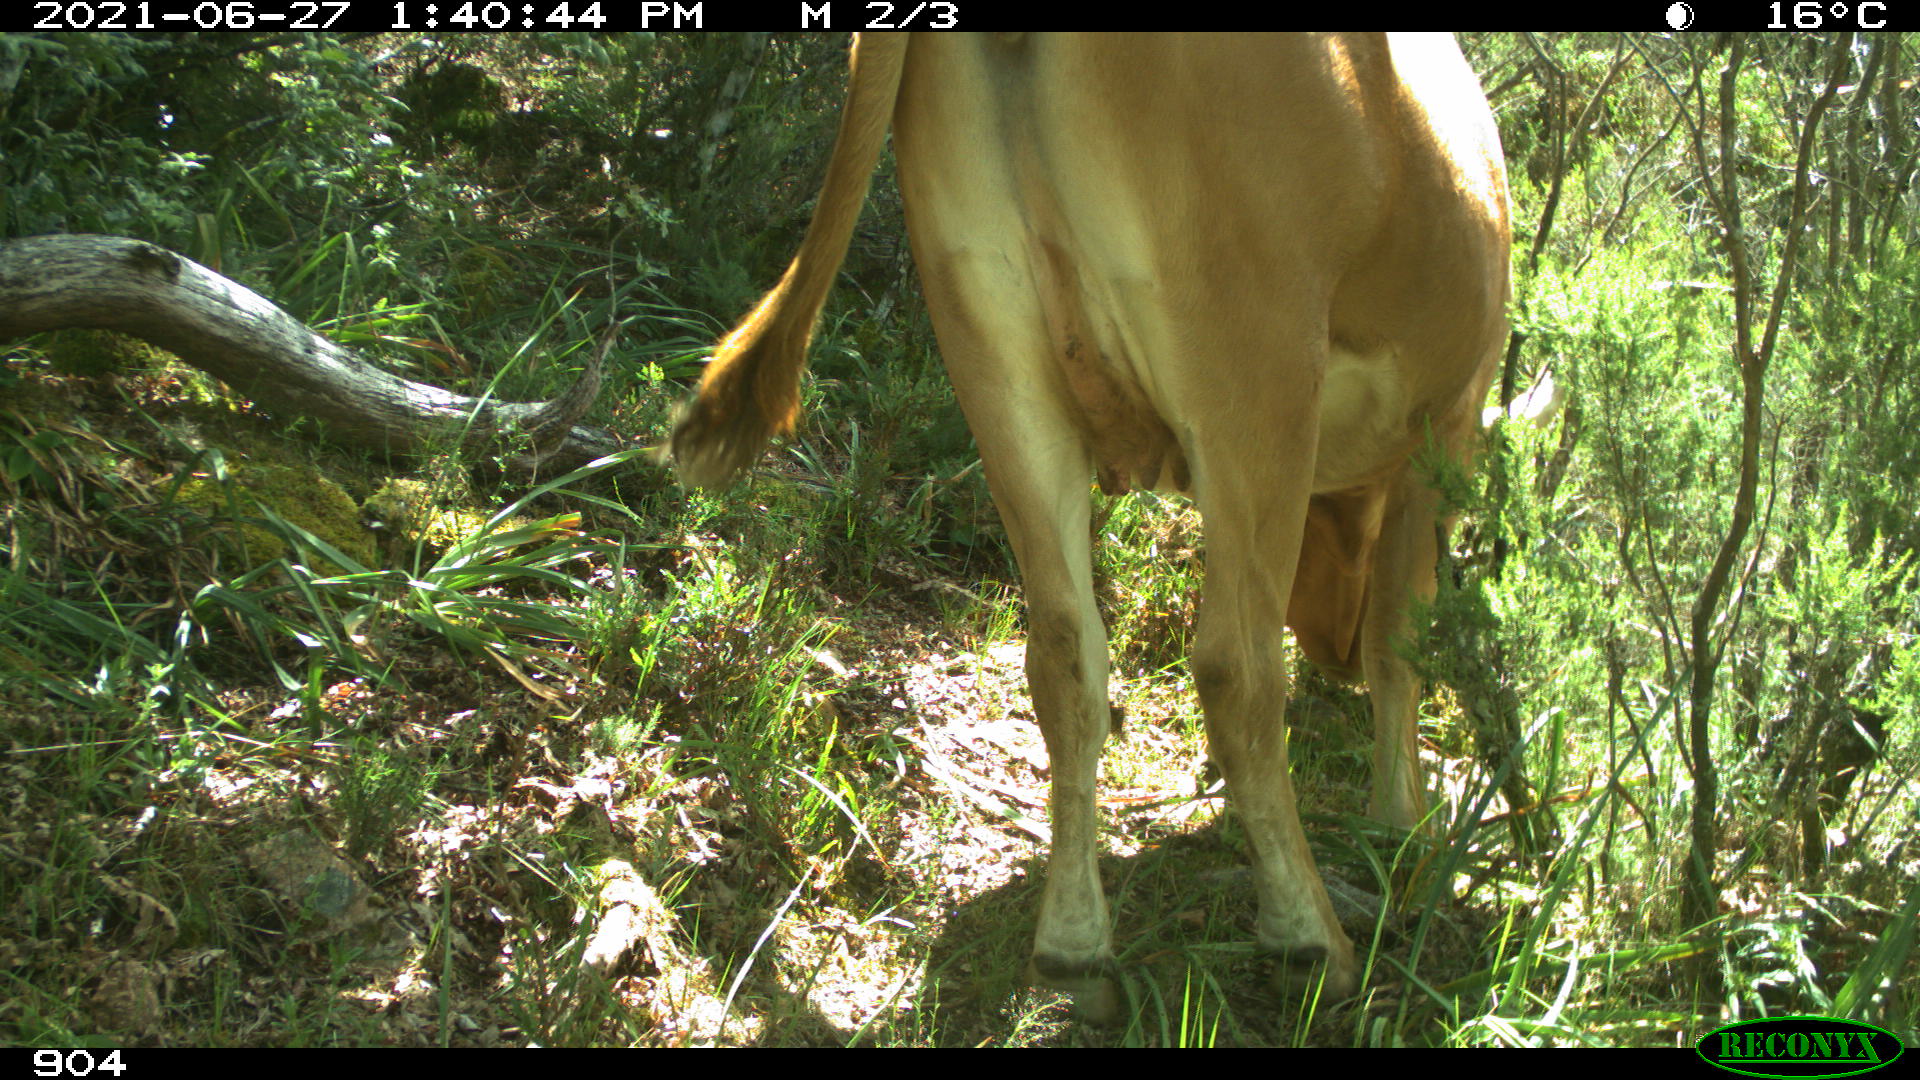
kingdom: Animalia
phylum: Chordata
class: Mammalia
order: Artiodactyla
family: Bovidae
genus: Bos
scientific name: Bos taurus
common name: Domesticated cattle
